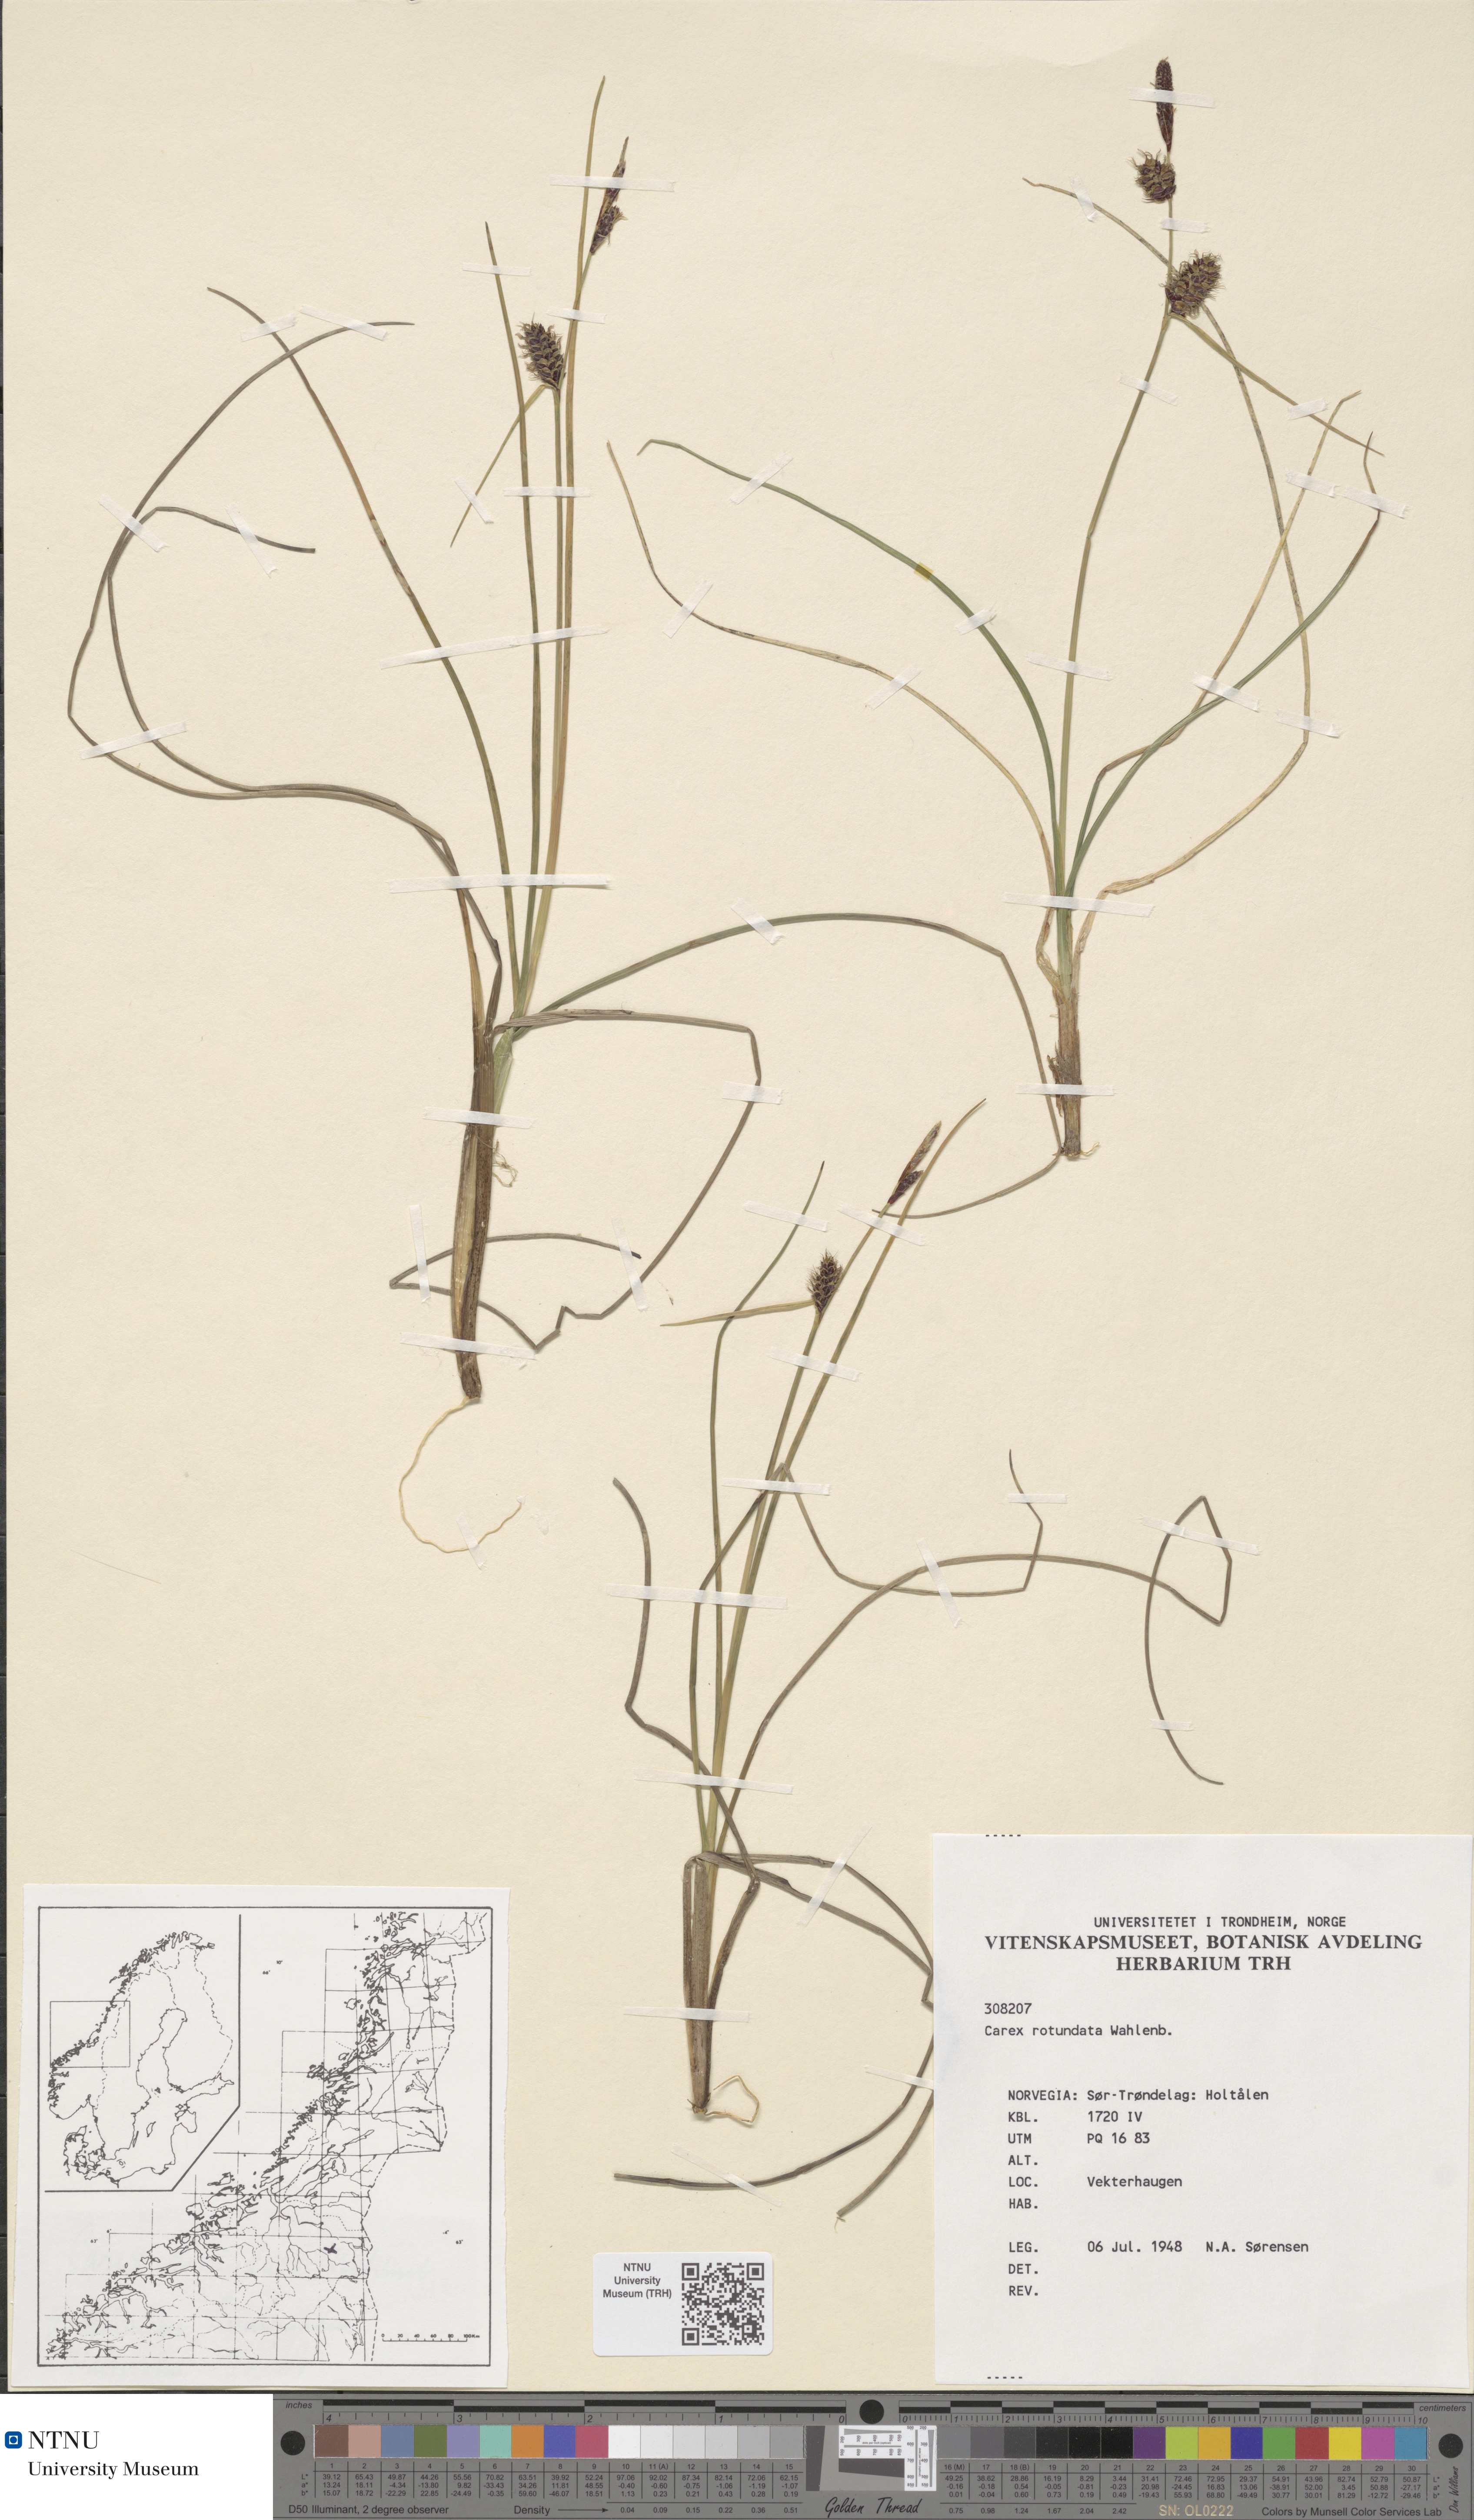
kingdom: Plantae
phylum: Tracheophyta
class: Liliopsida
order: Poales
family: Cyperaceae
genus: Carex
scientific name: Carex rotundata
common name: Round-fruited sedge
